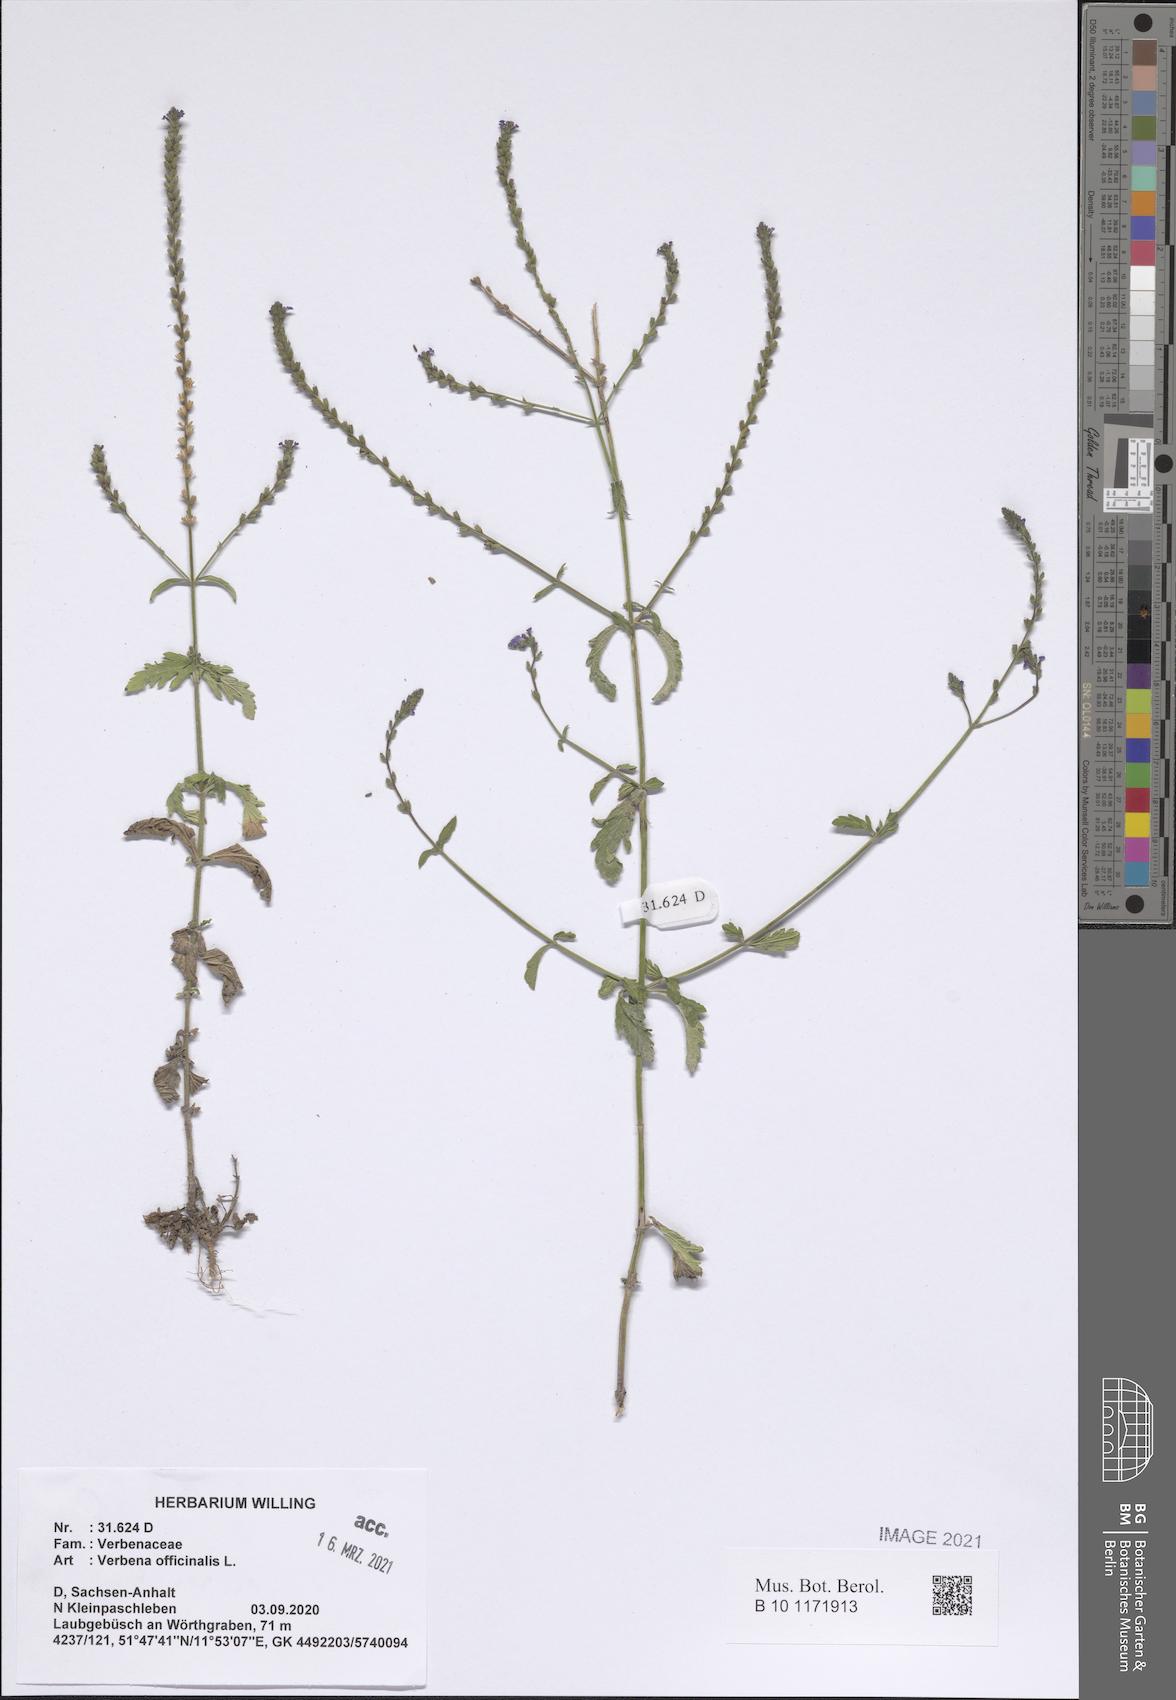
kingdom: Plantae
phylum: Tracheophyta
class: Magnoliopsida
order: Lamiales
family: Verbenaceae
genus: Verbena
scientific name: Verbena officinalis
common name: Vervain
